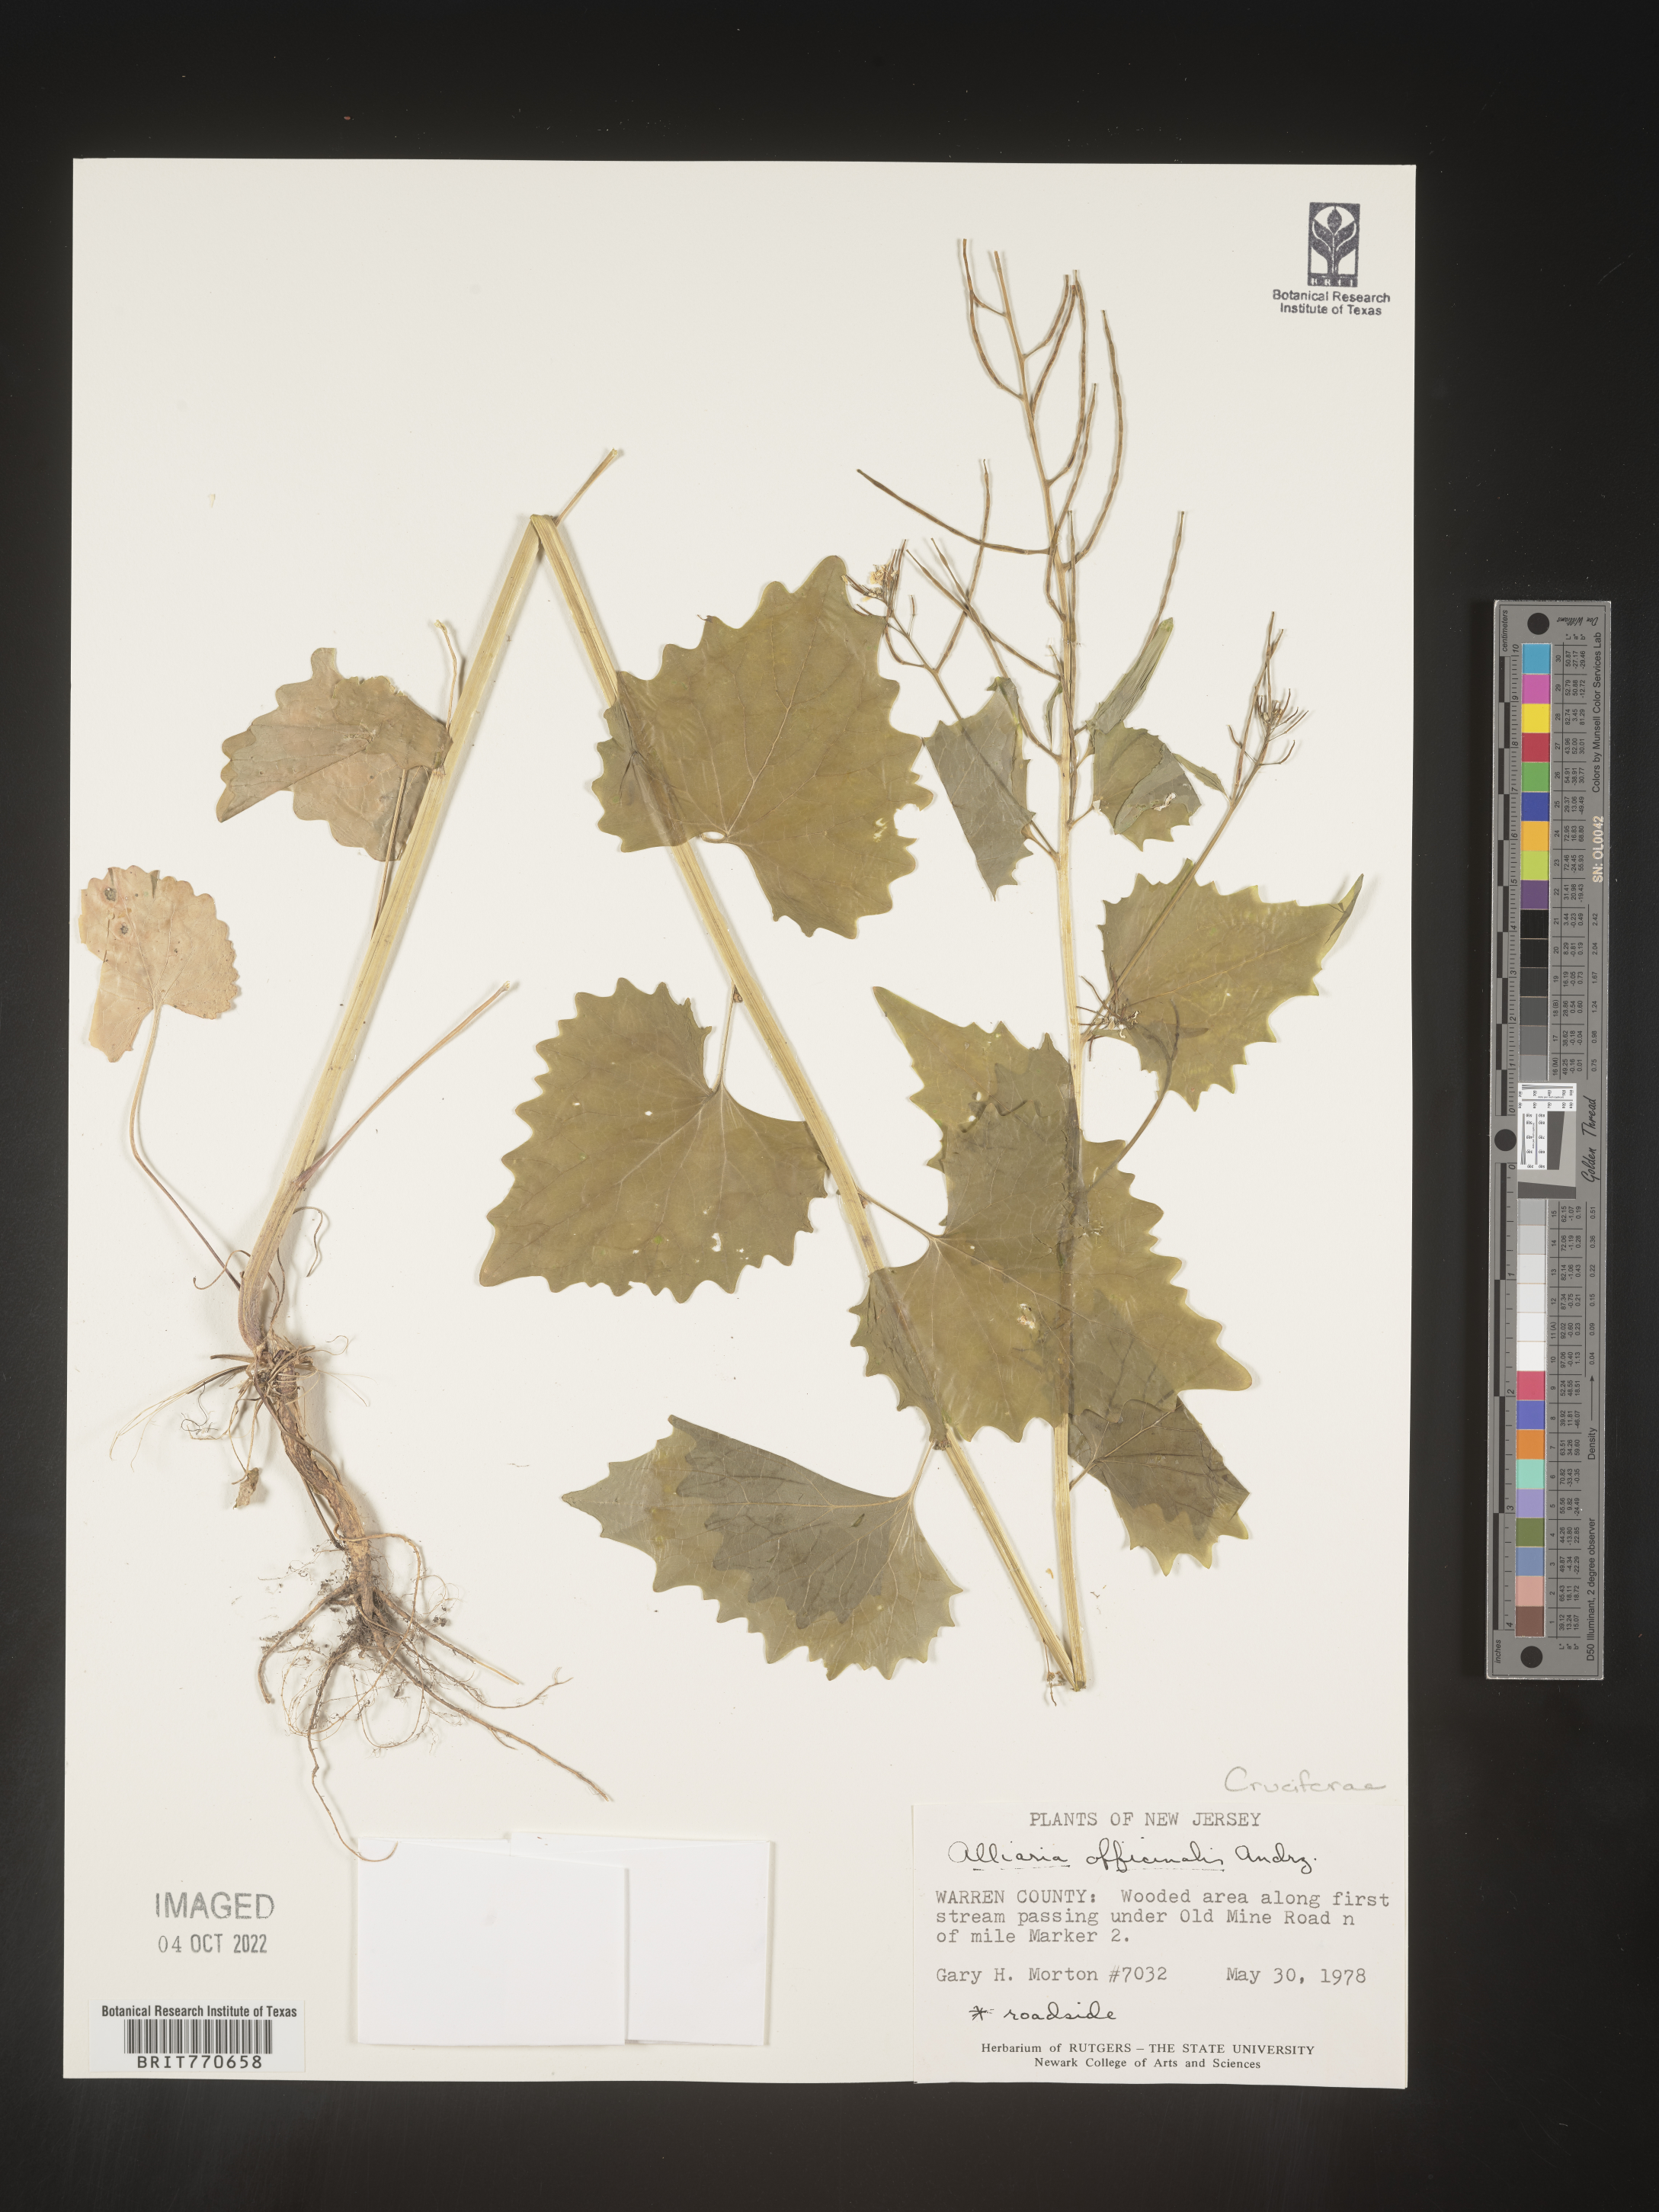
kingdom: Plantae
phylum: Tracheophyta
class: Magnoliopsida
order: Brassicales
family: Brassicaceae
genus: Alliaria
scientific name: Alliaria
